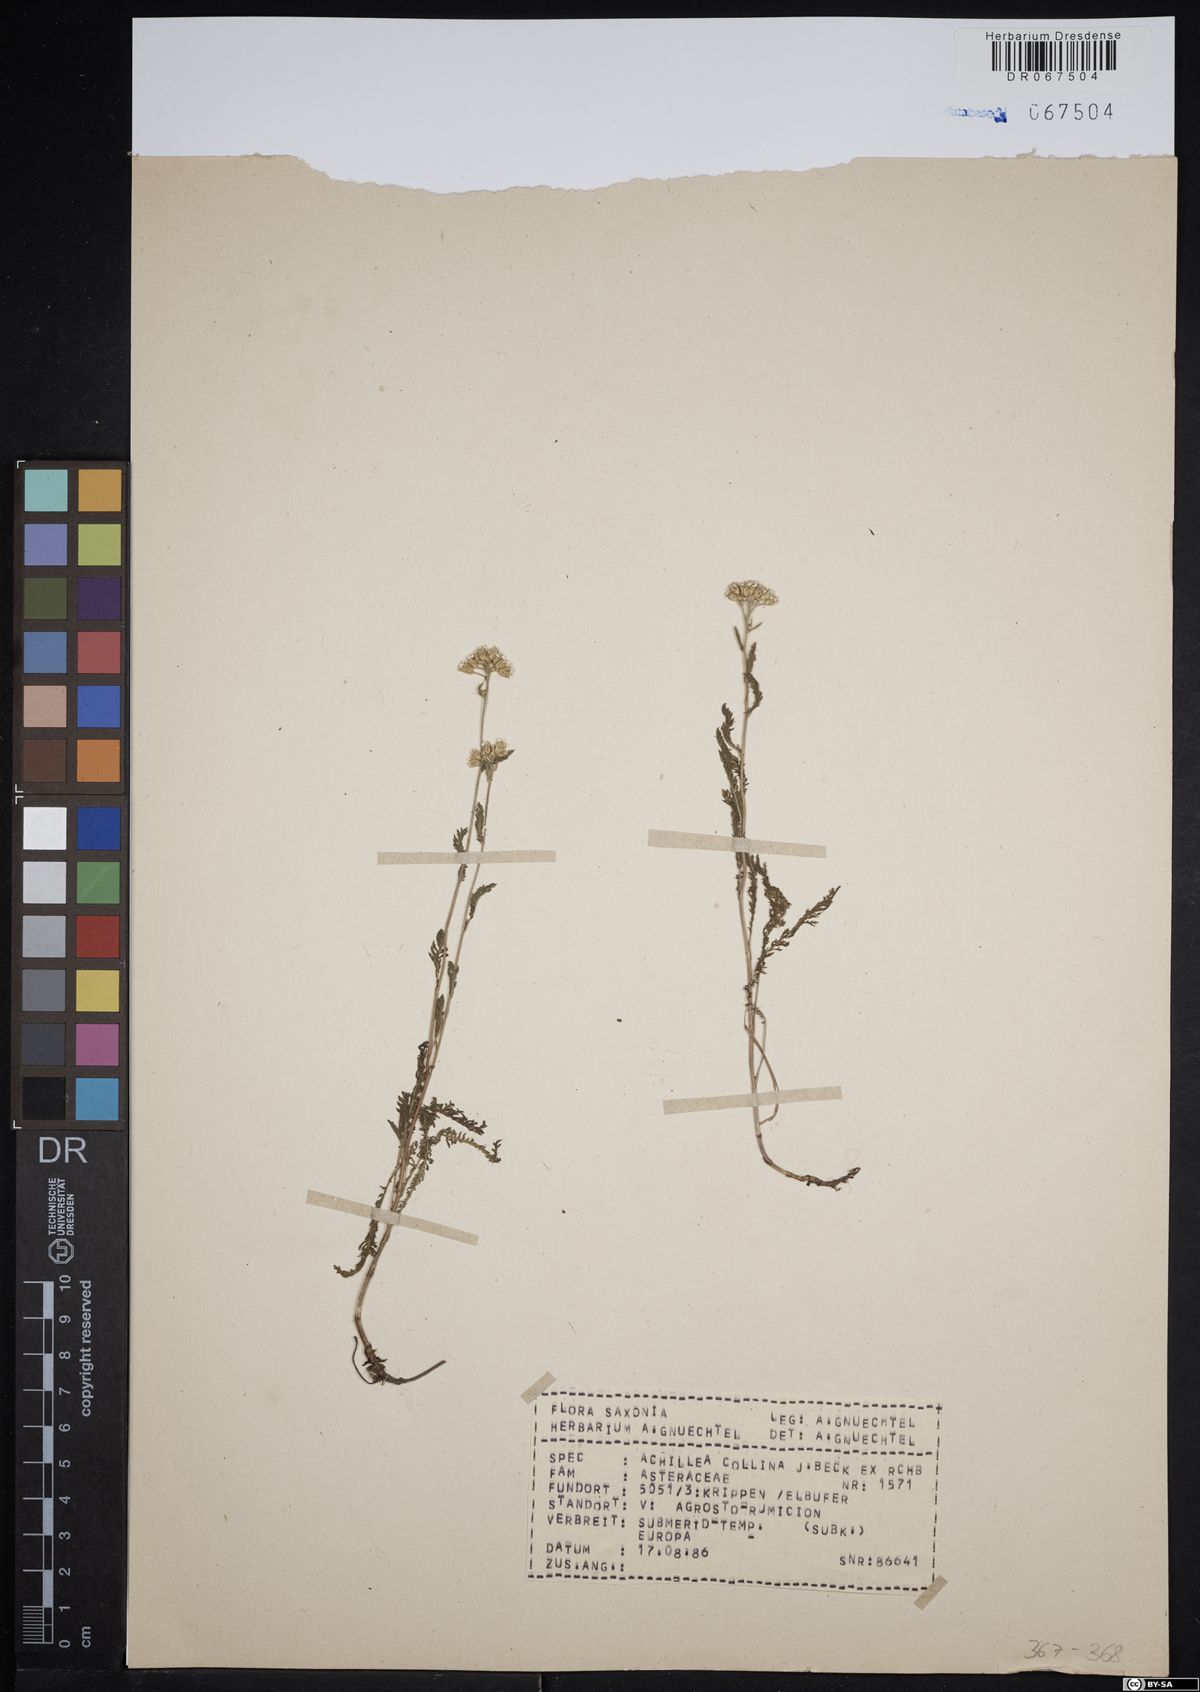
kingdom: Plantae
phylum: Tracheophyta
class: Magnoliopsida
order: Asterales
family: Asteraceae
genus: Achillea
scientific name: Achillea collina
